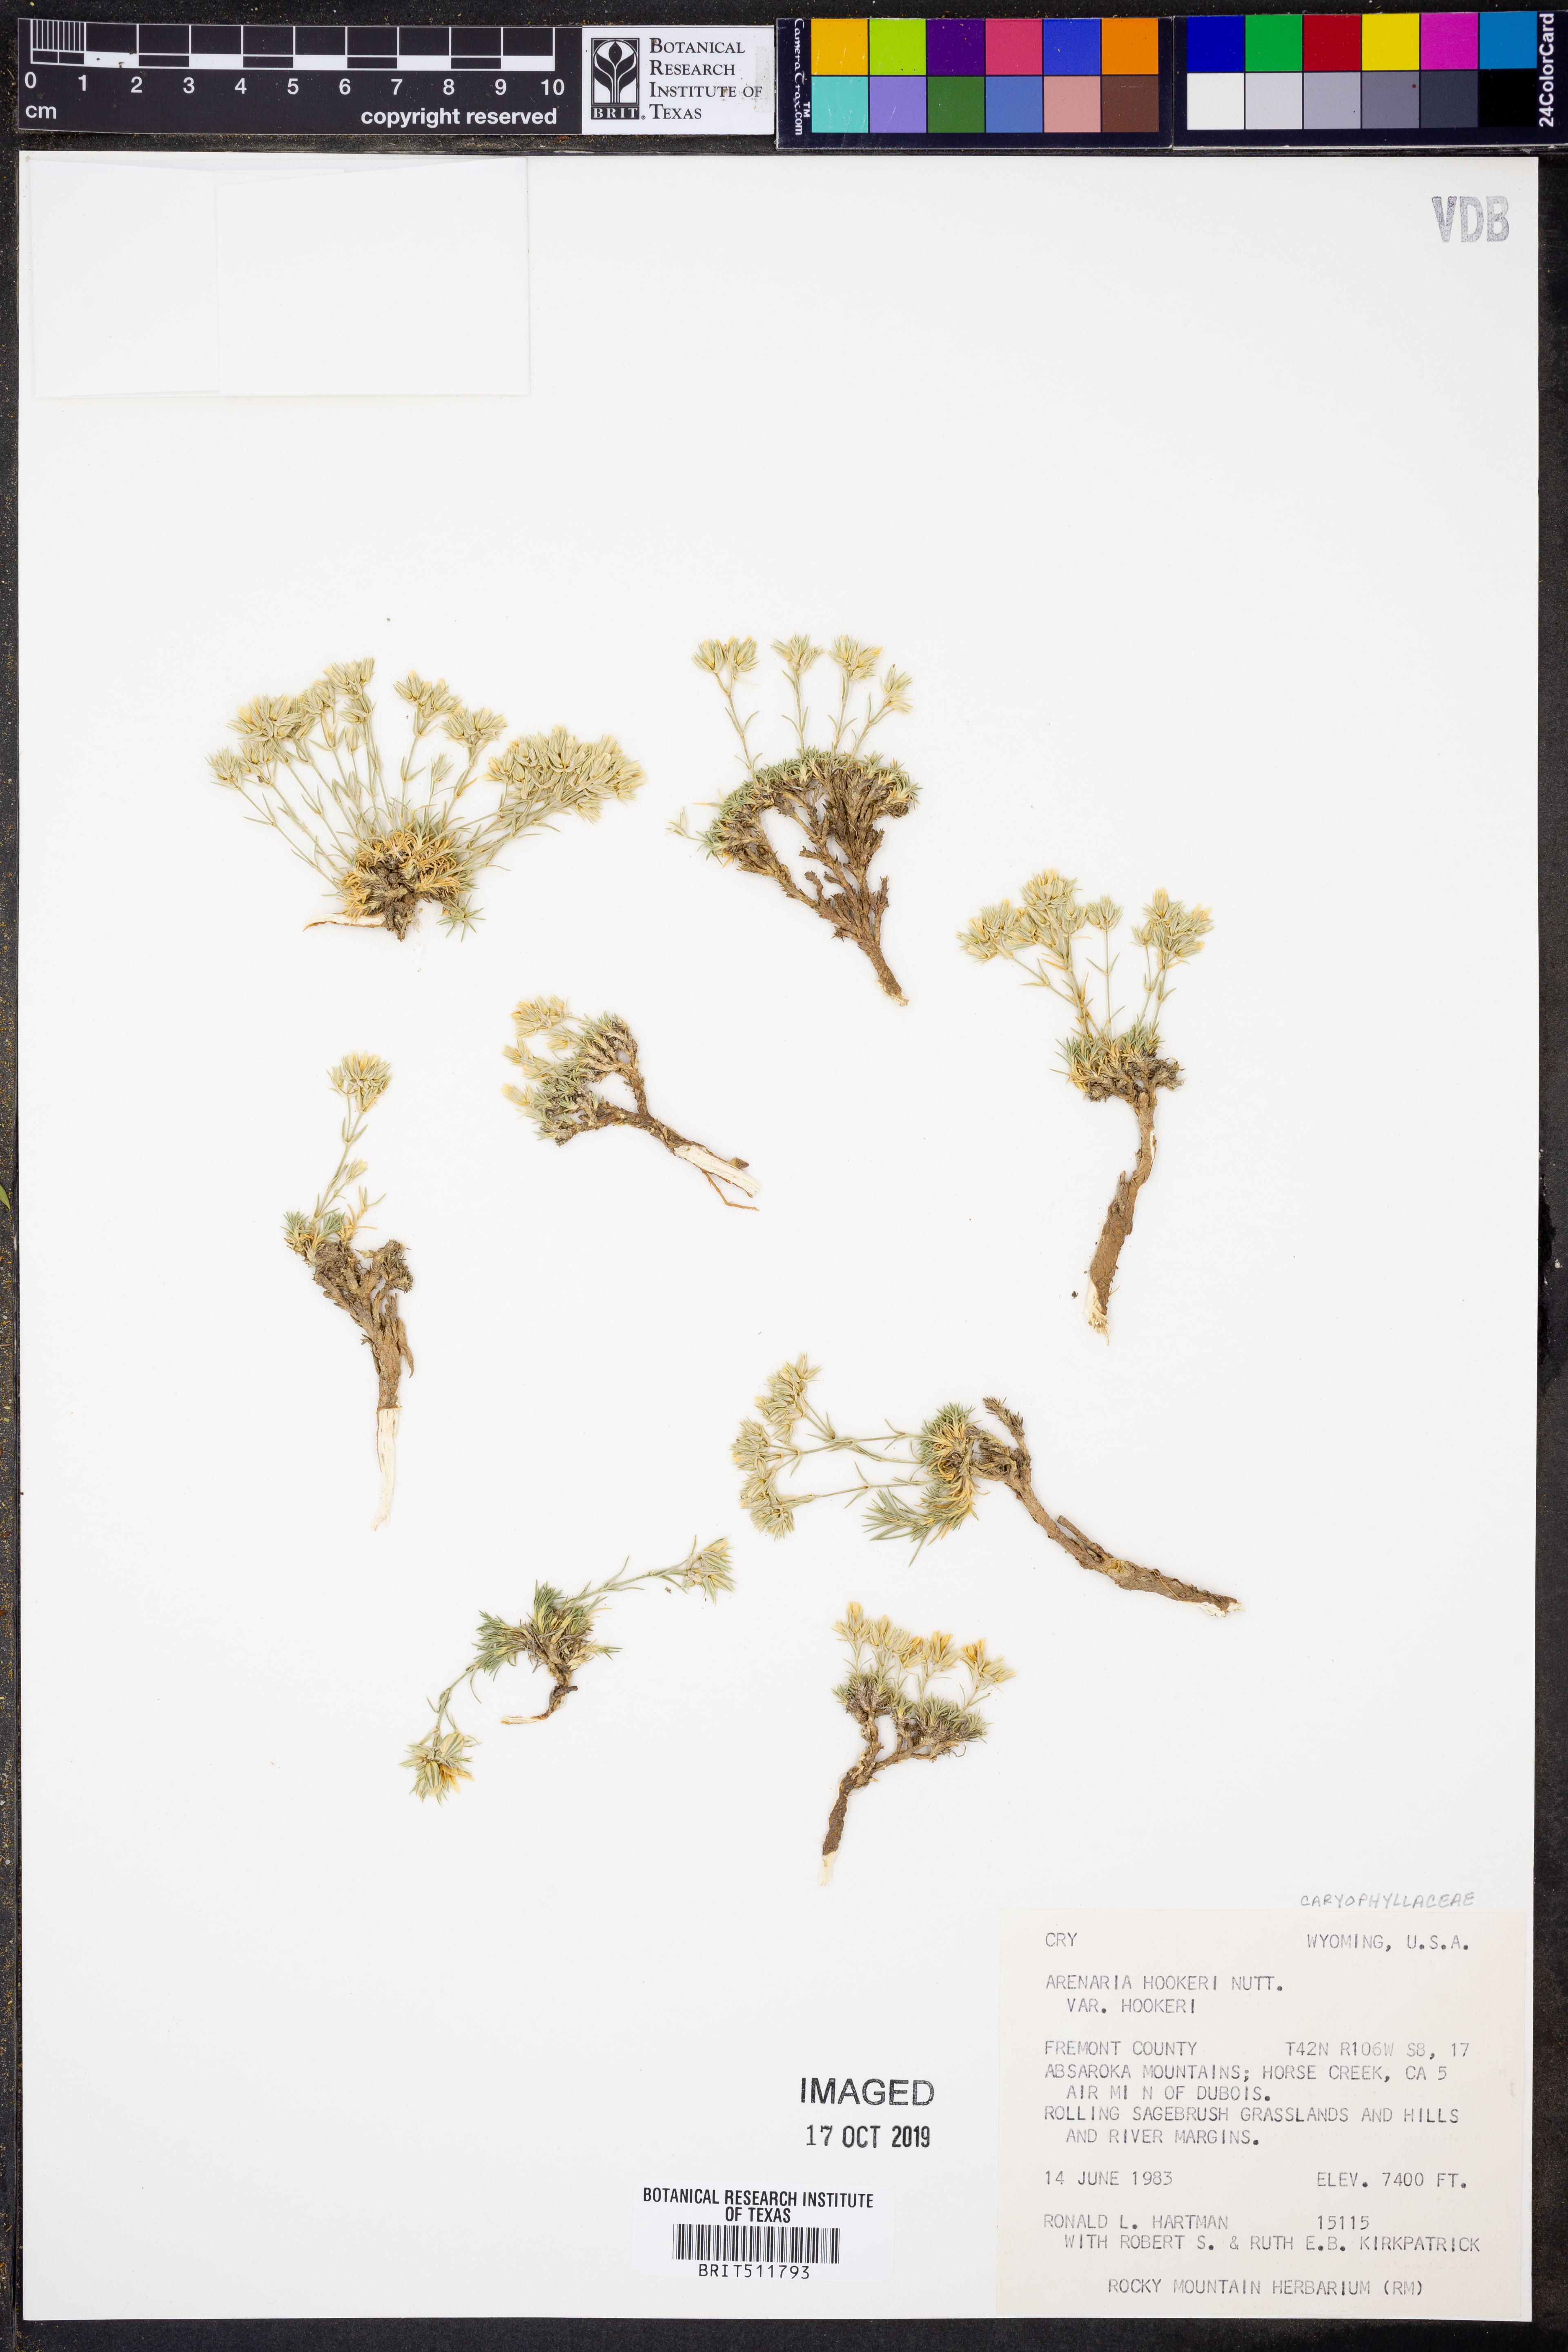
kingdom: Plantae
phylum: Tracheophyta
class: Magnoliopsida
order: Caryophyllales
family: Caryophyllaceae
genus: Eremogone
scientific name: Eremogone hookeri
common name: Hooker's sandwort
